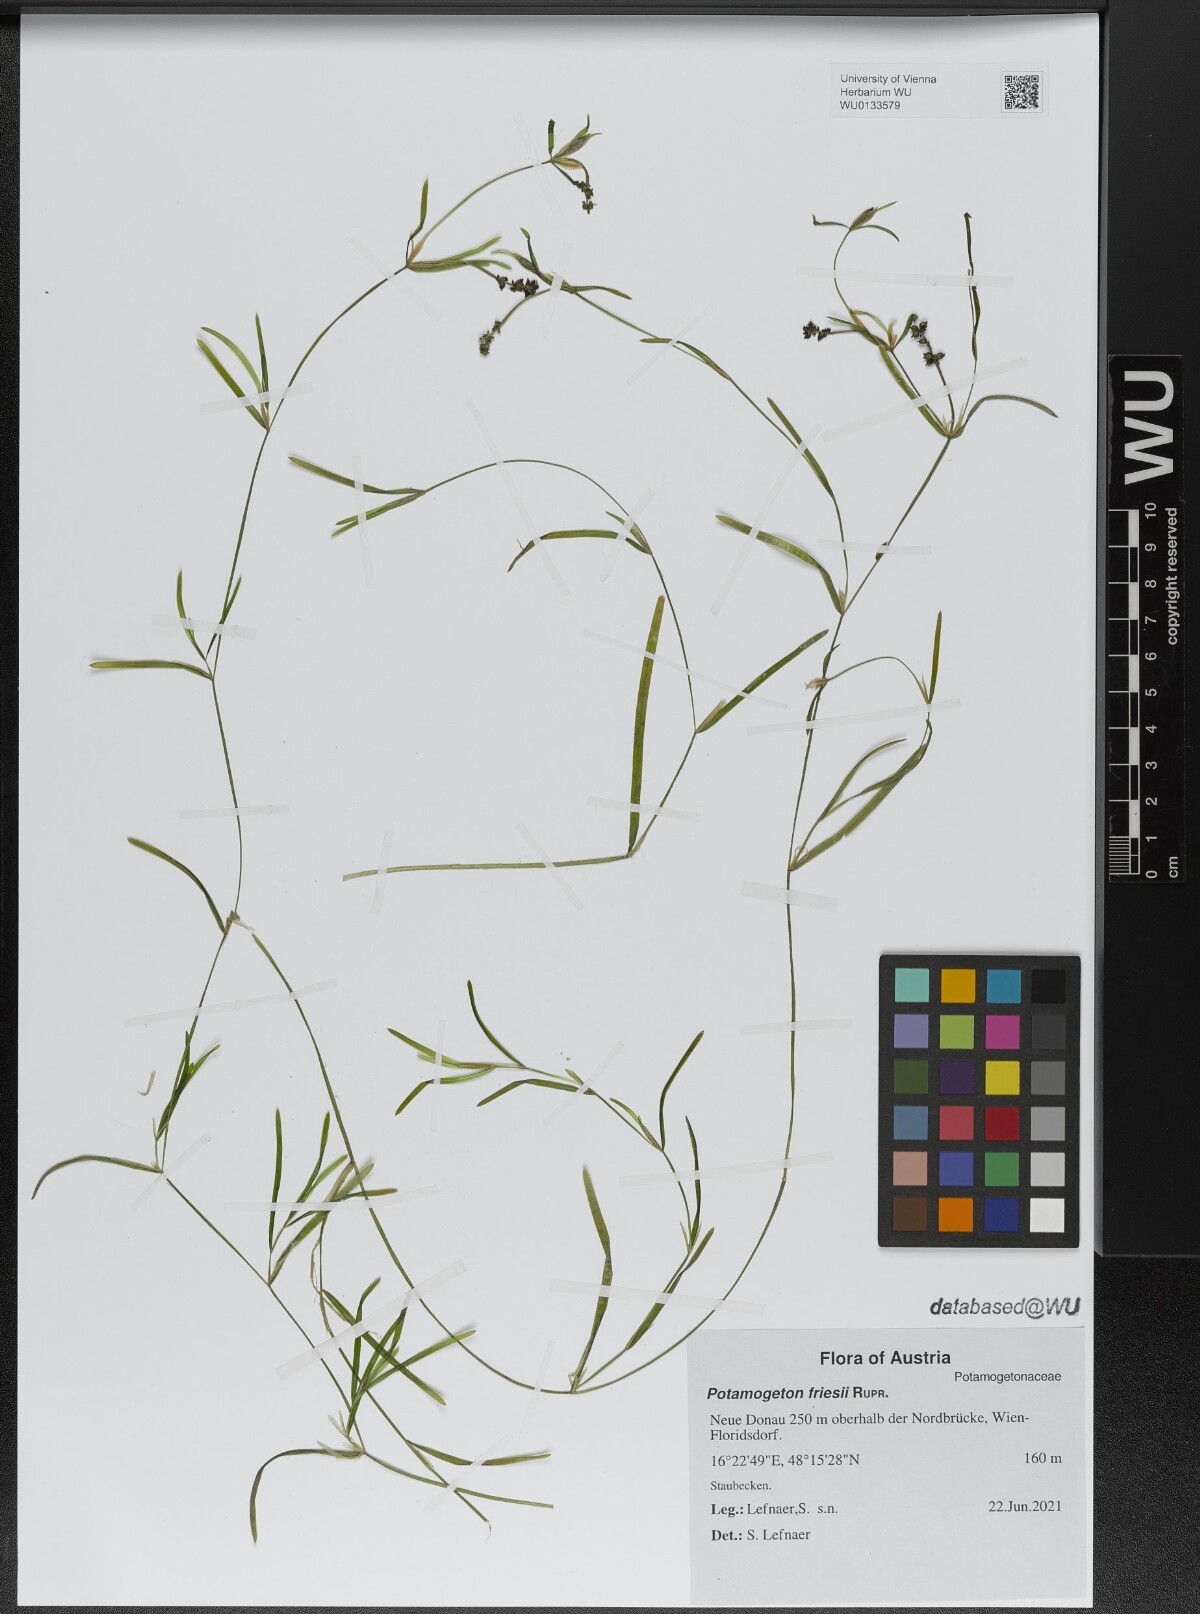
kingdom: Plantae
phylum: Tracheophyta
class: Liliopsida
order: Alismatales
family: Potamogetonaceae
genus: Potamogeton
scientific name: Potamogeton friesii
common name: Flat-stalked pondweed
